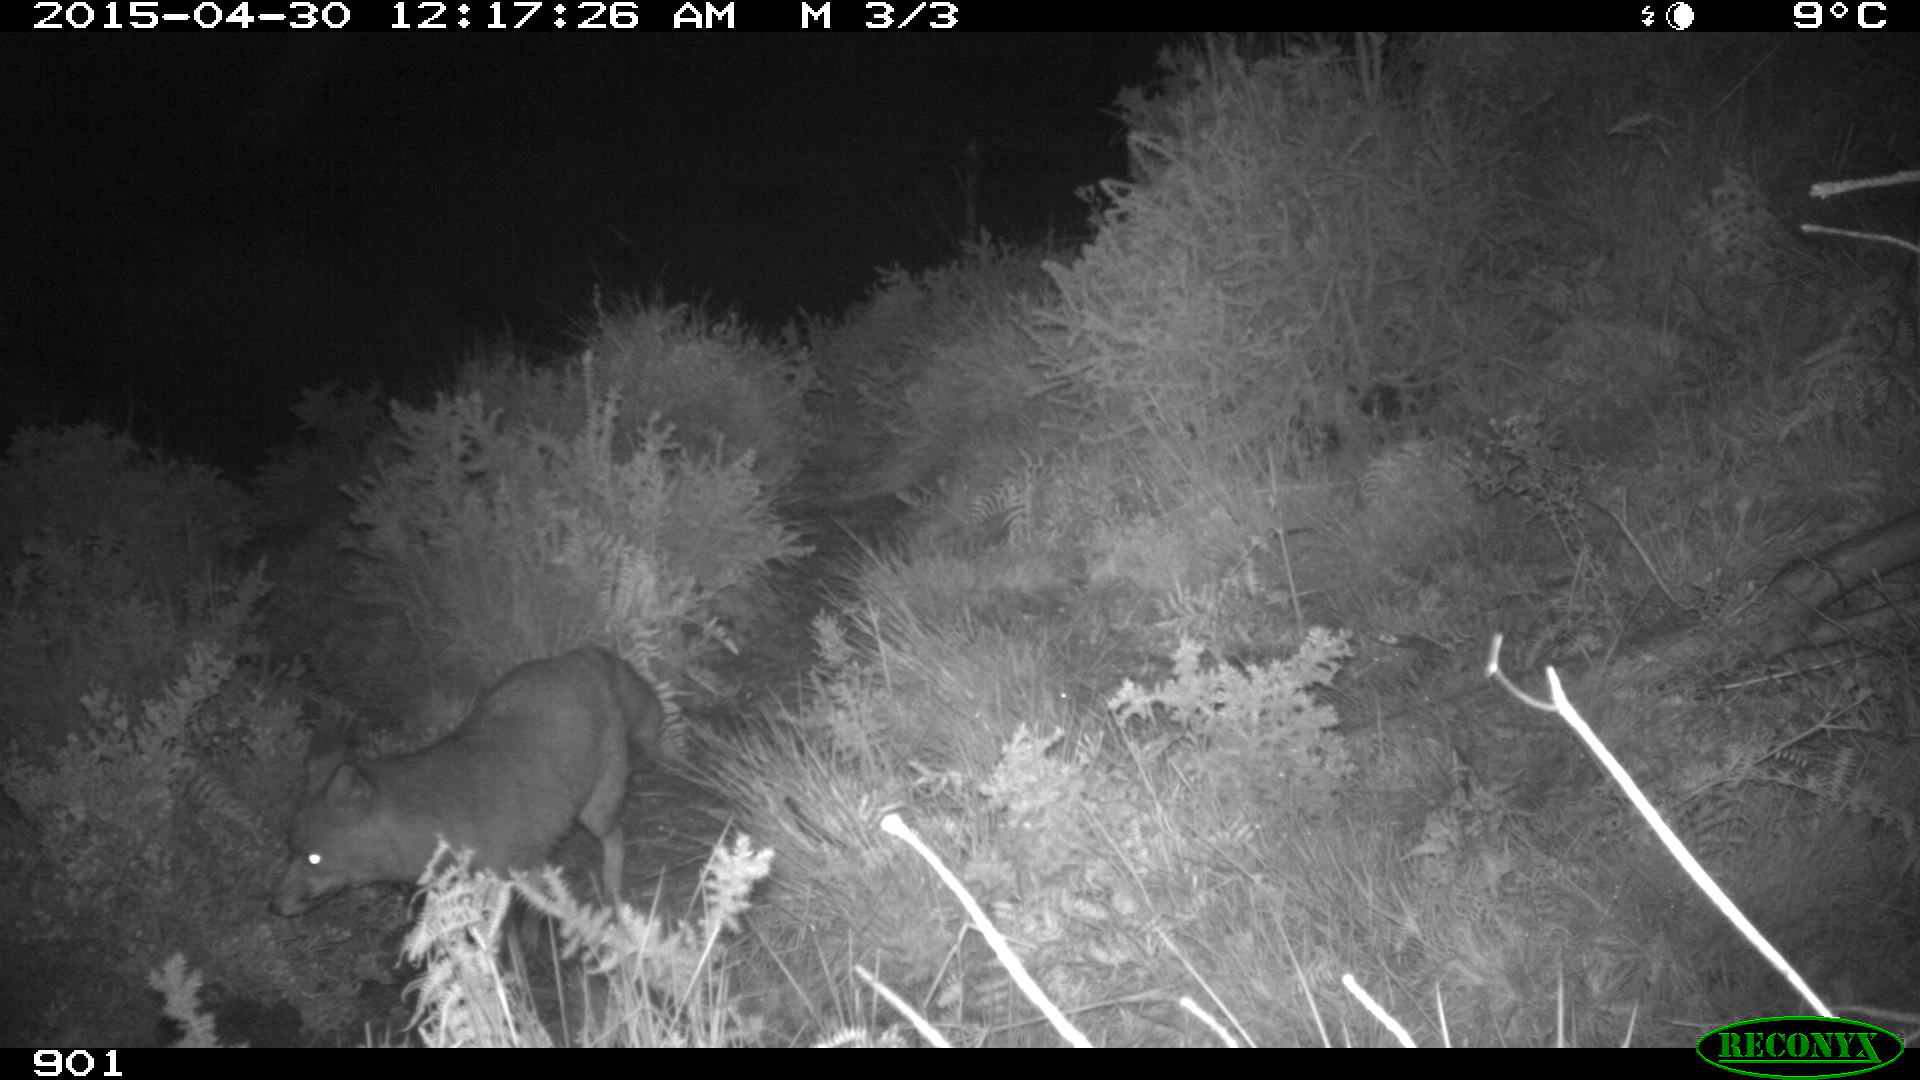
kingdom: Animalia
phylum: Chordata
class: Mammalia
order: Carnivora
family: Canidae
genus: Vulpes
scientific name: Vulpes vulpes
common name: Red fox
